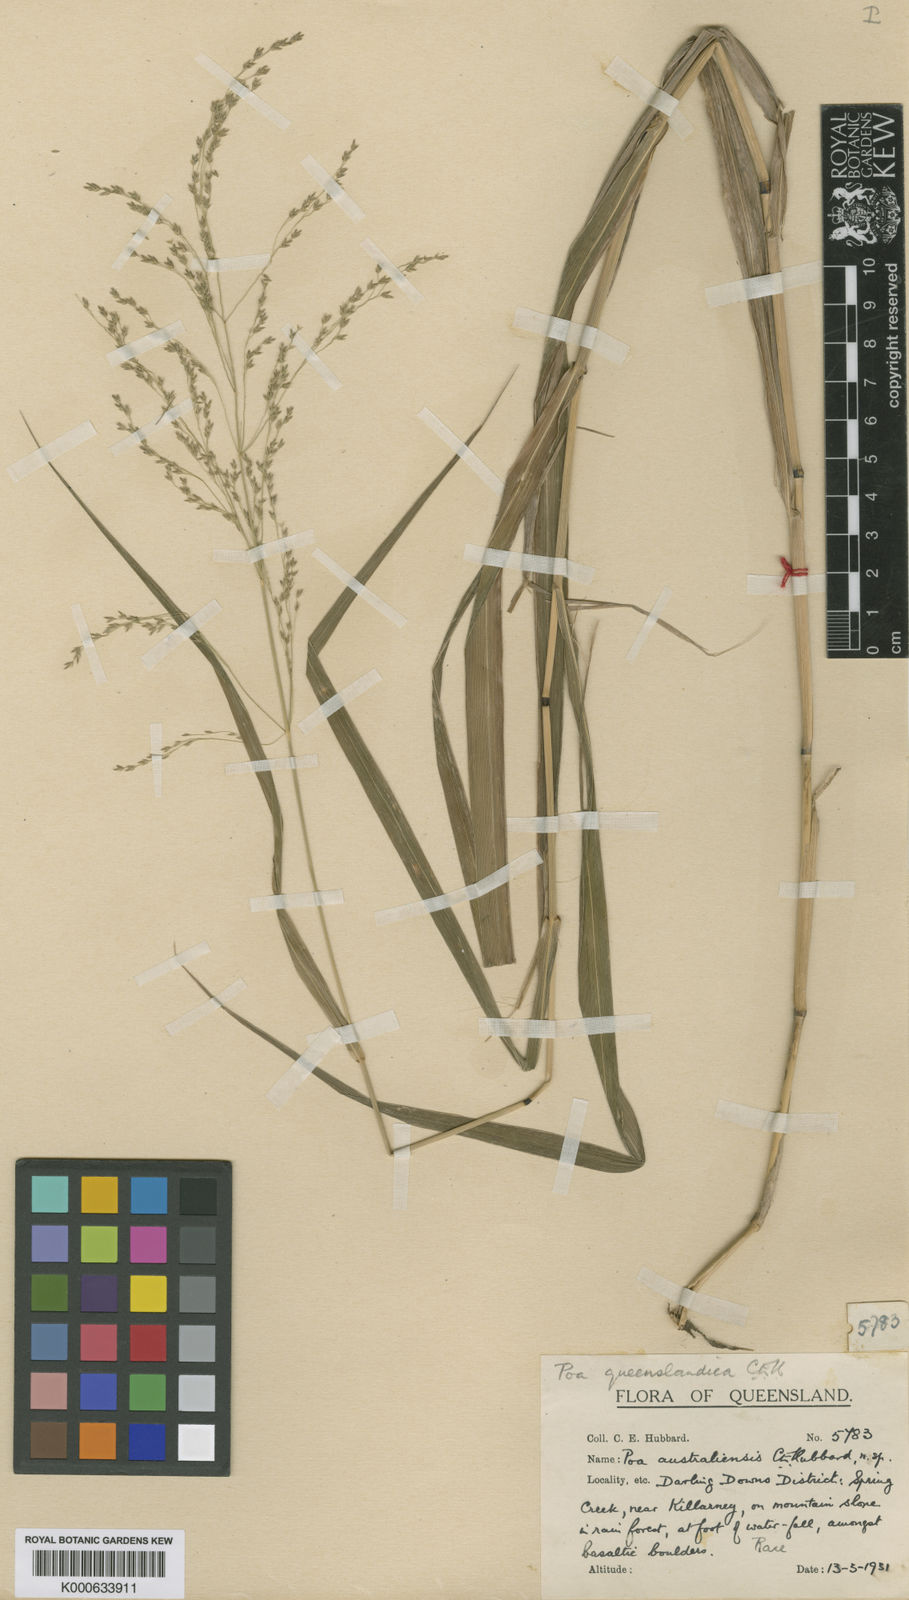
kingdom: Plantae
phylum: Tracheophyta
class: Liliopsida
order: Poales
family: Poaceae
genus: Sylvipoa
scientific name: Sylvipoa queenslandica
